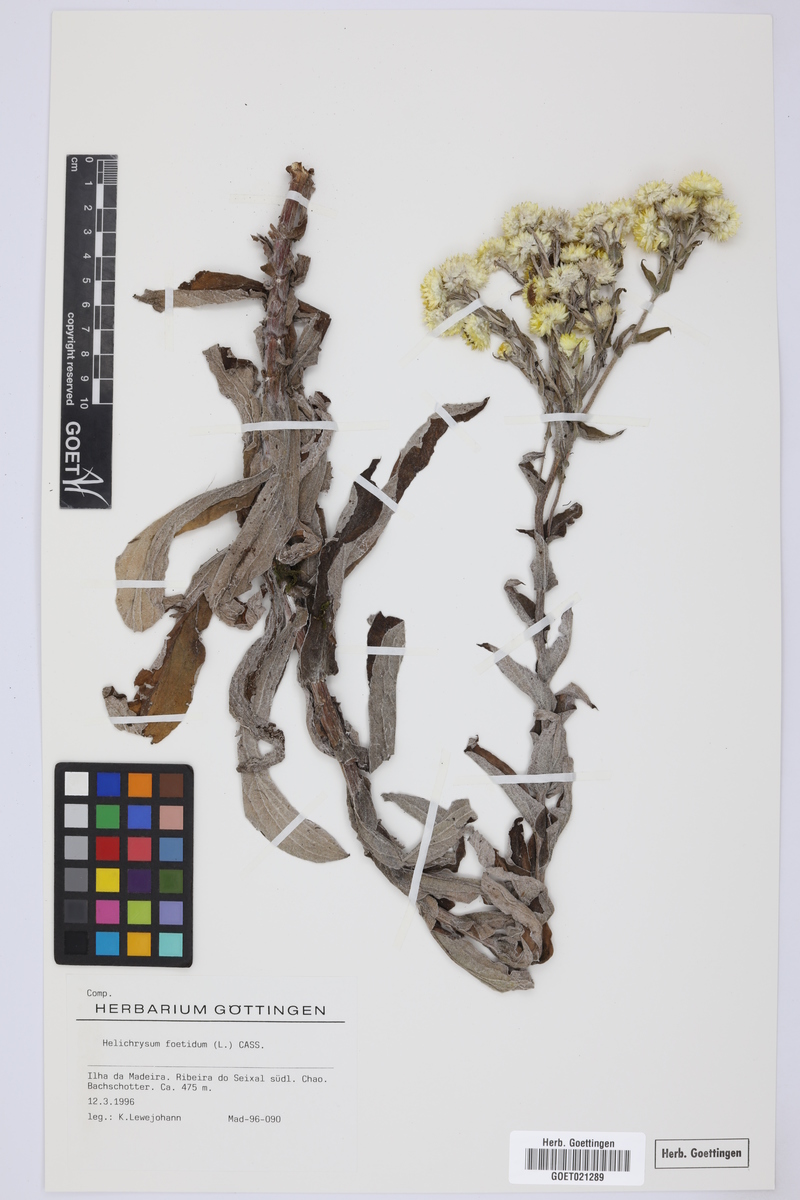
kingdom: Plantae
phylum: Tracheophyta
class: Magnoliopsida
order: Asterales
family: Asteraceae
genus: Helichrysum
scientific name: Helichrysum foetidum
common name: Stinking everlasting
